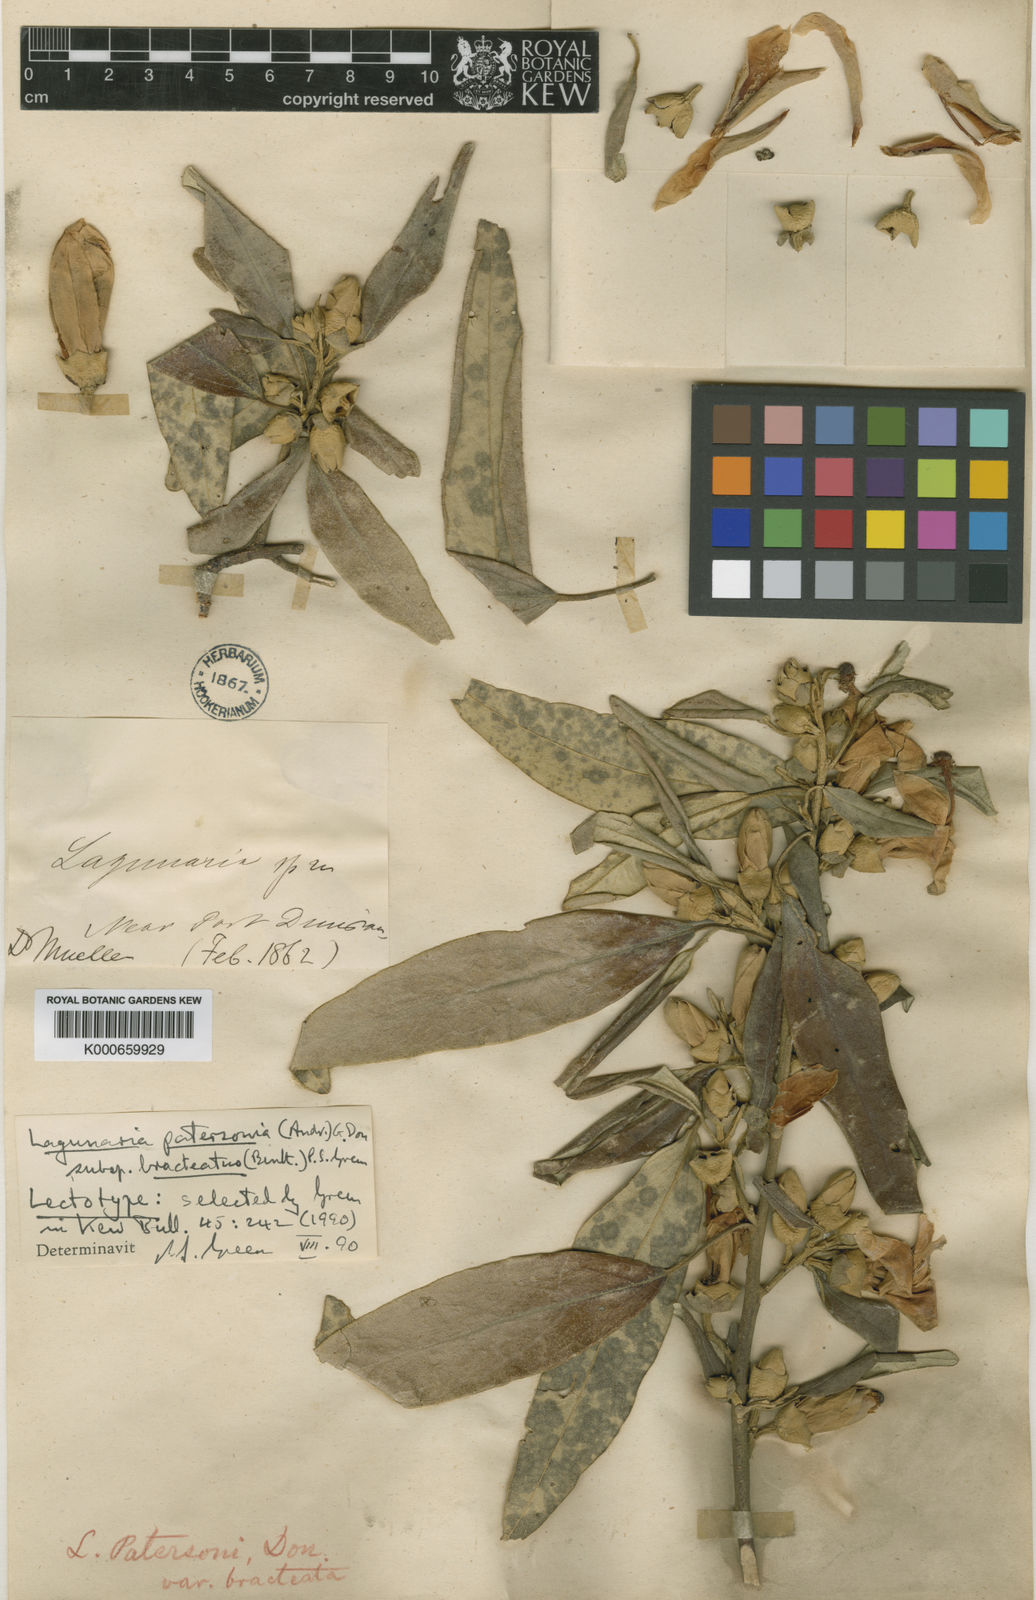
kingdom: Plantae
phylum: Tracheophyta
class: Magnoliopsida
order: Malvales
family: Malvaceae
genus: Lagunaria
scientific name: Lagunaria queenslandica
